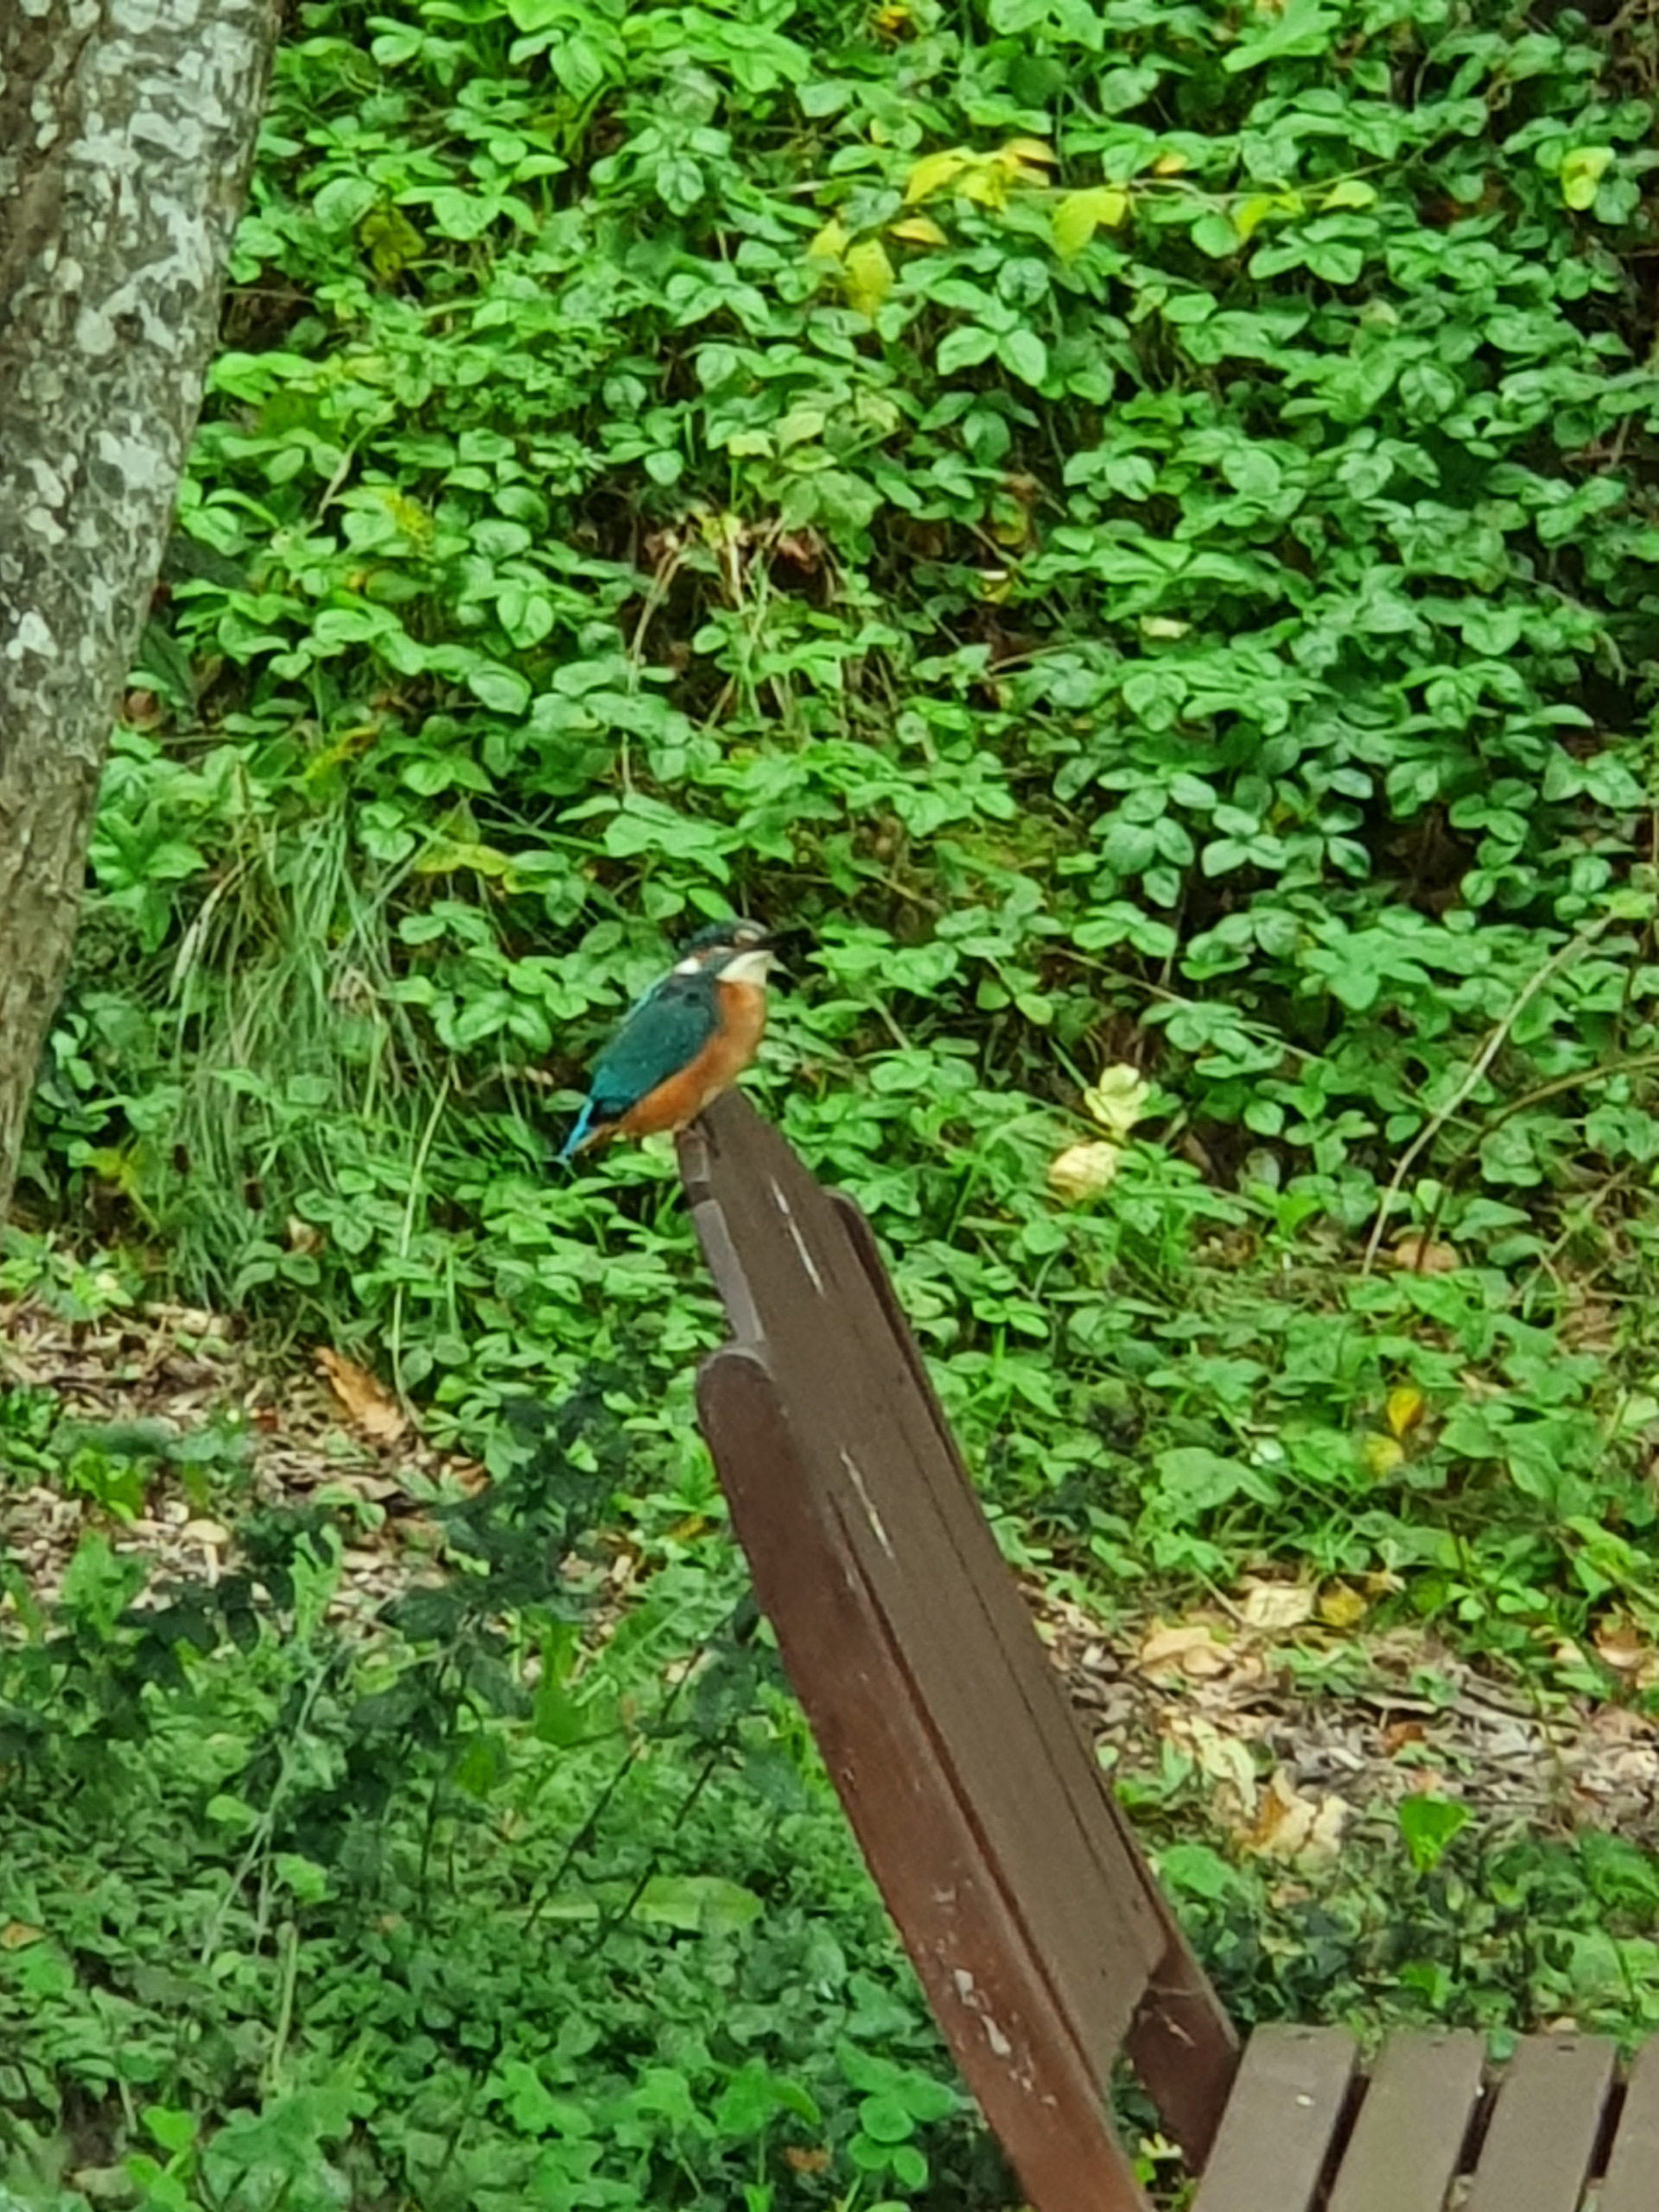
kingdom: Animalia
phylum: Chordata
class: Aves
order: Coraciiformes
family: Alcedinidae
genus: Alcedo
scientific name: Alcedo atthis
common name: Isfugl
